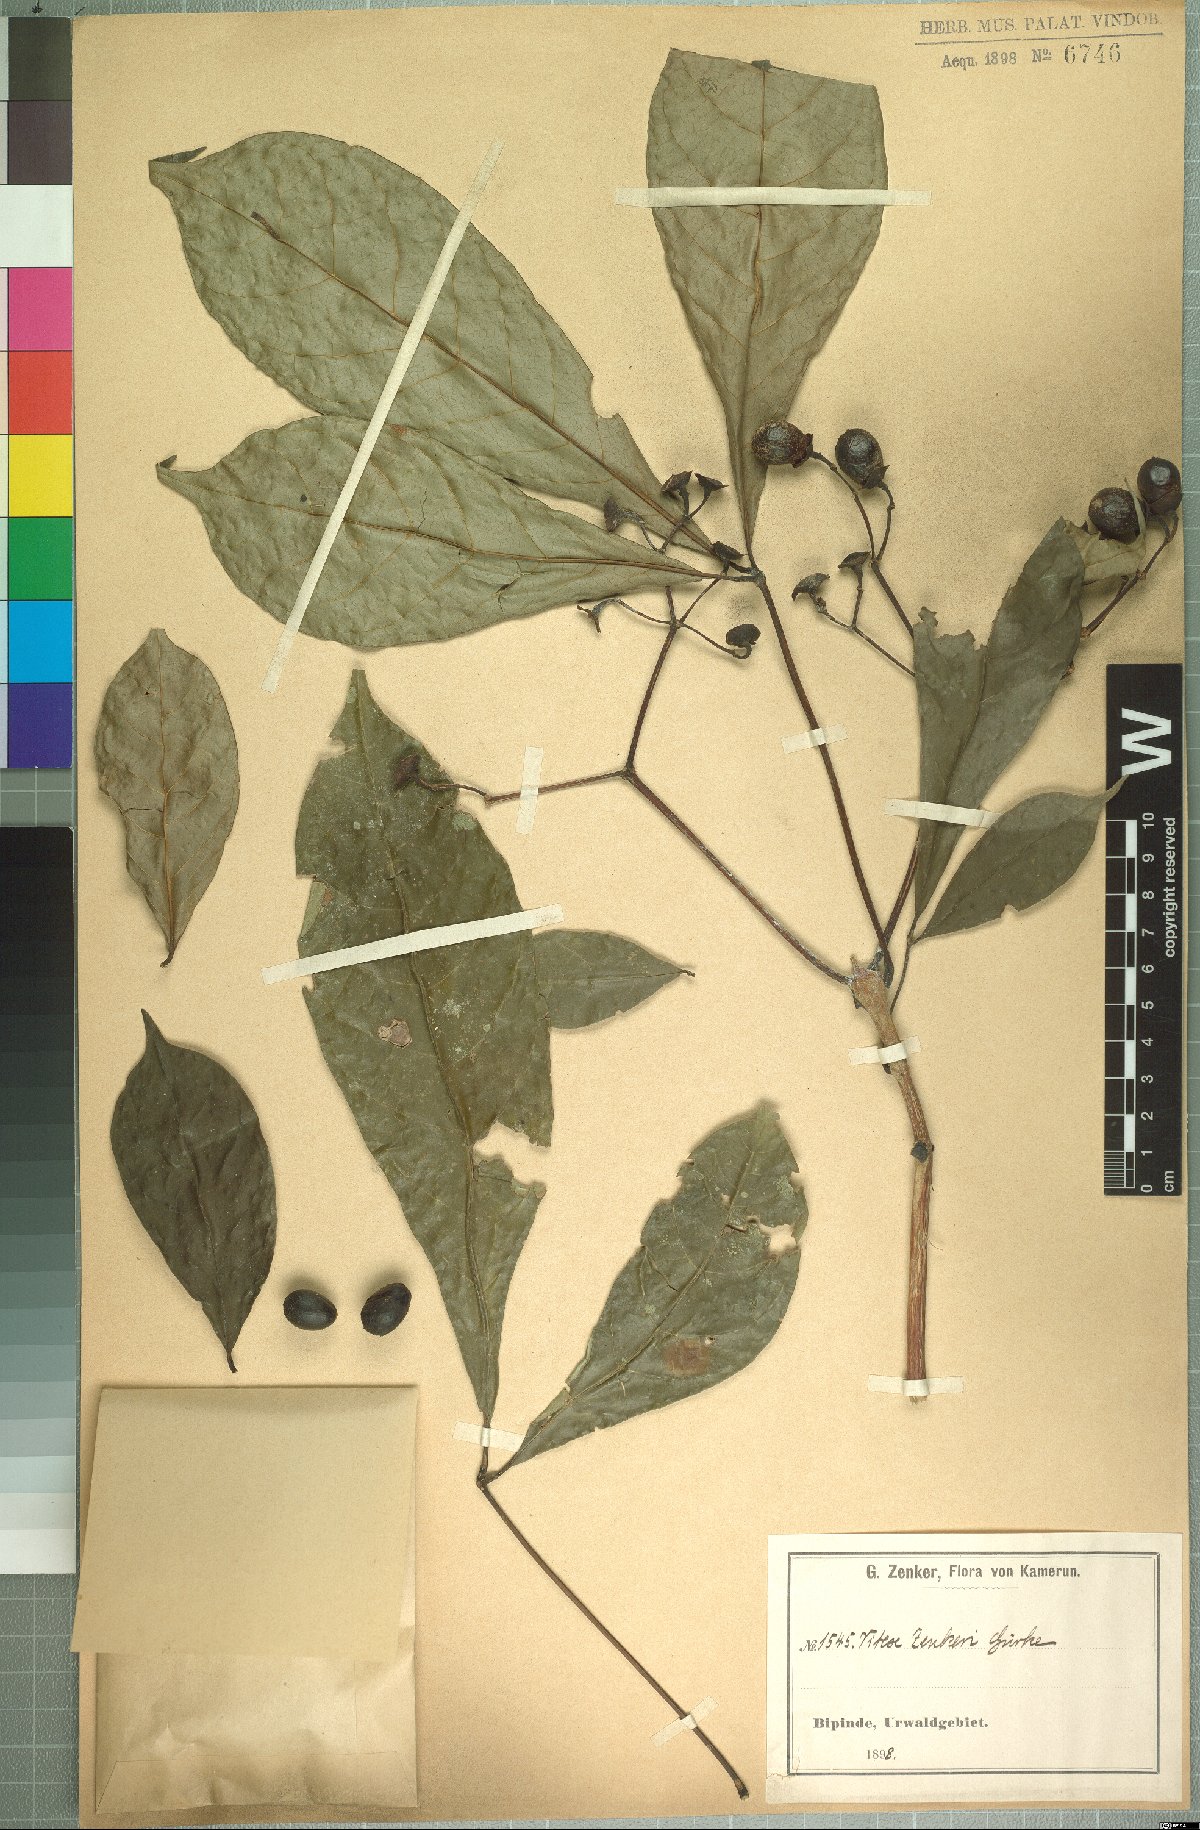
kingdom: Plantae
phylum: Tracheophyta
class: Magnoliopsida
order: Lamiales
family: Lamiaceae
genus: Vitex
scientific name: Vitex zenkeri
